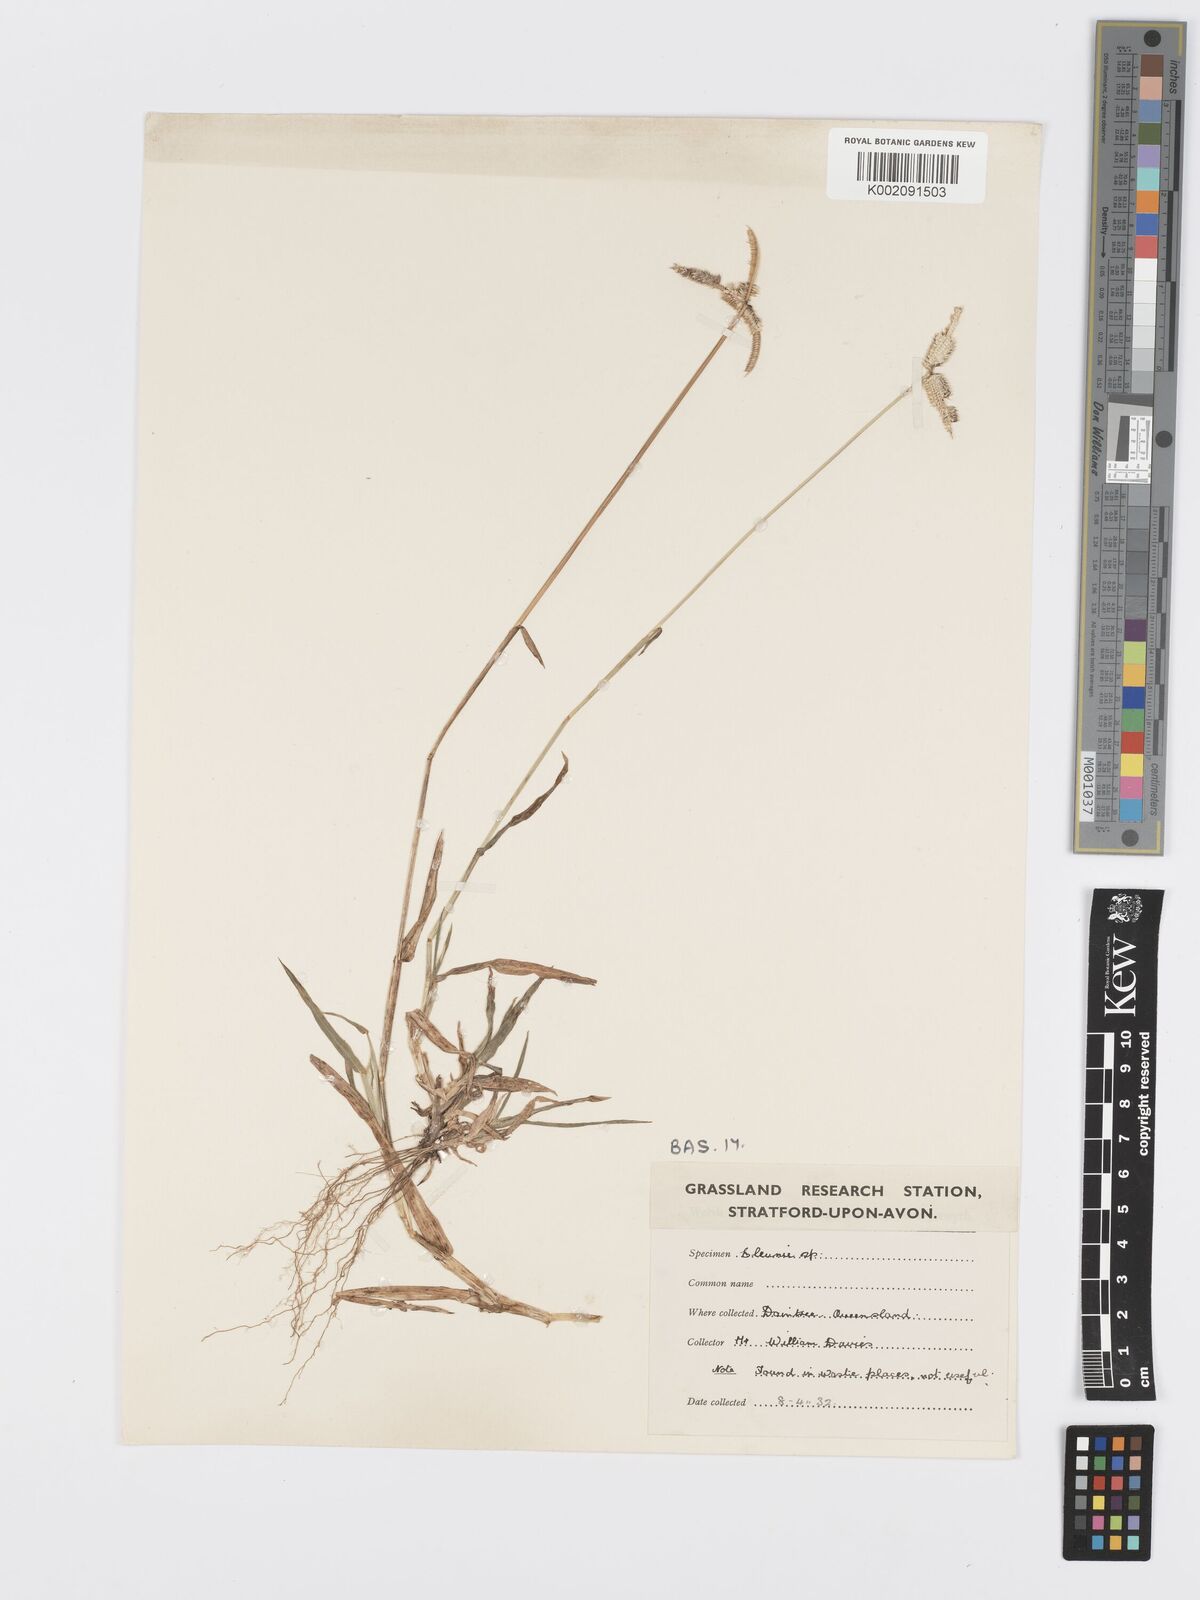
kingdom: Plantae
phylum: Tracheophyta
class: Liliopsida
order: Poales
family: Poaceae
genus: Dactyloctenium
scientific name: Dactyloctenium aegyptium
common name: Egyptian grass
